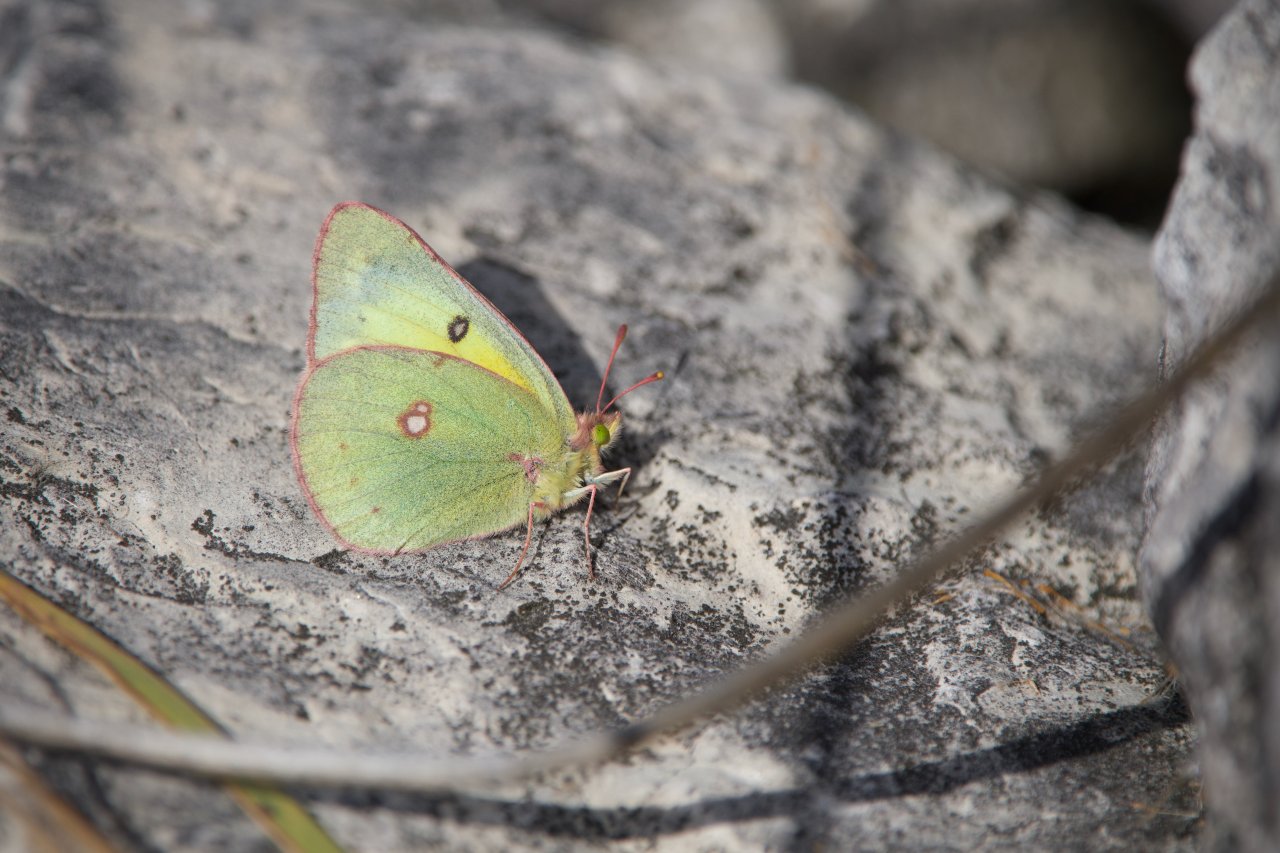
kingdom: Animalia
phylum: Arthropoda
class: Insecta
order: Lepidoptera
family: Pieridae
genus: Colias
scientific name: Colias eurytheme
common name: Orange Sulphur
